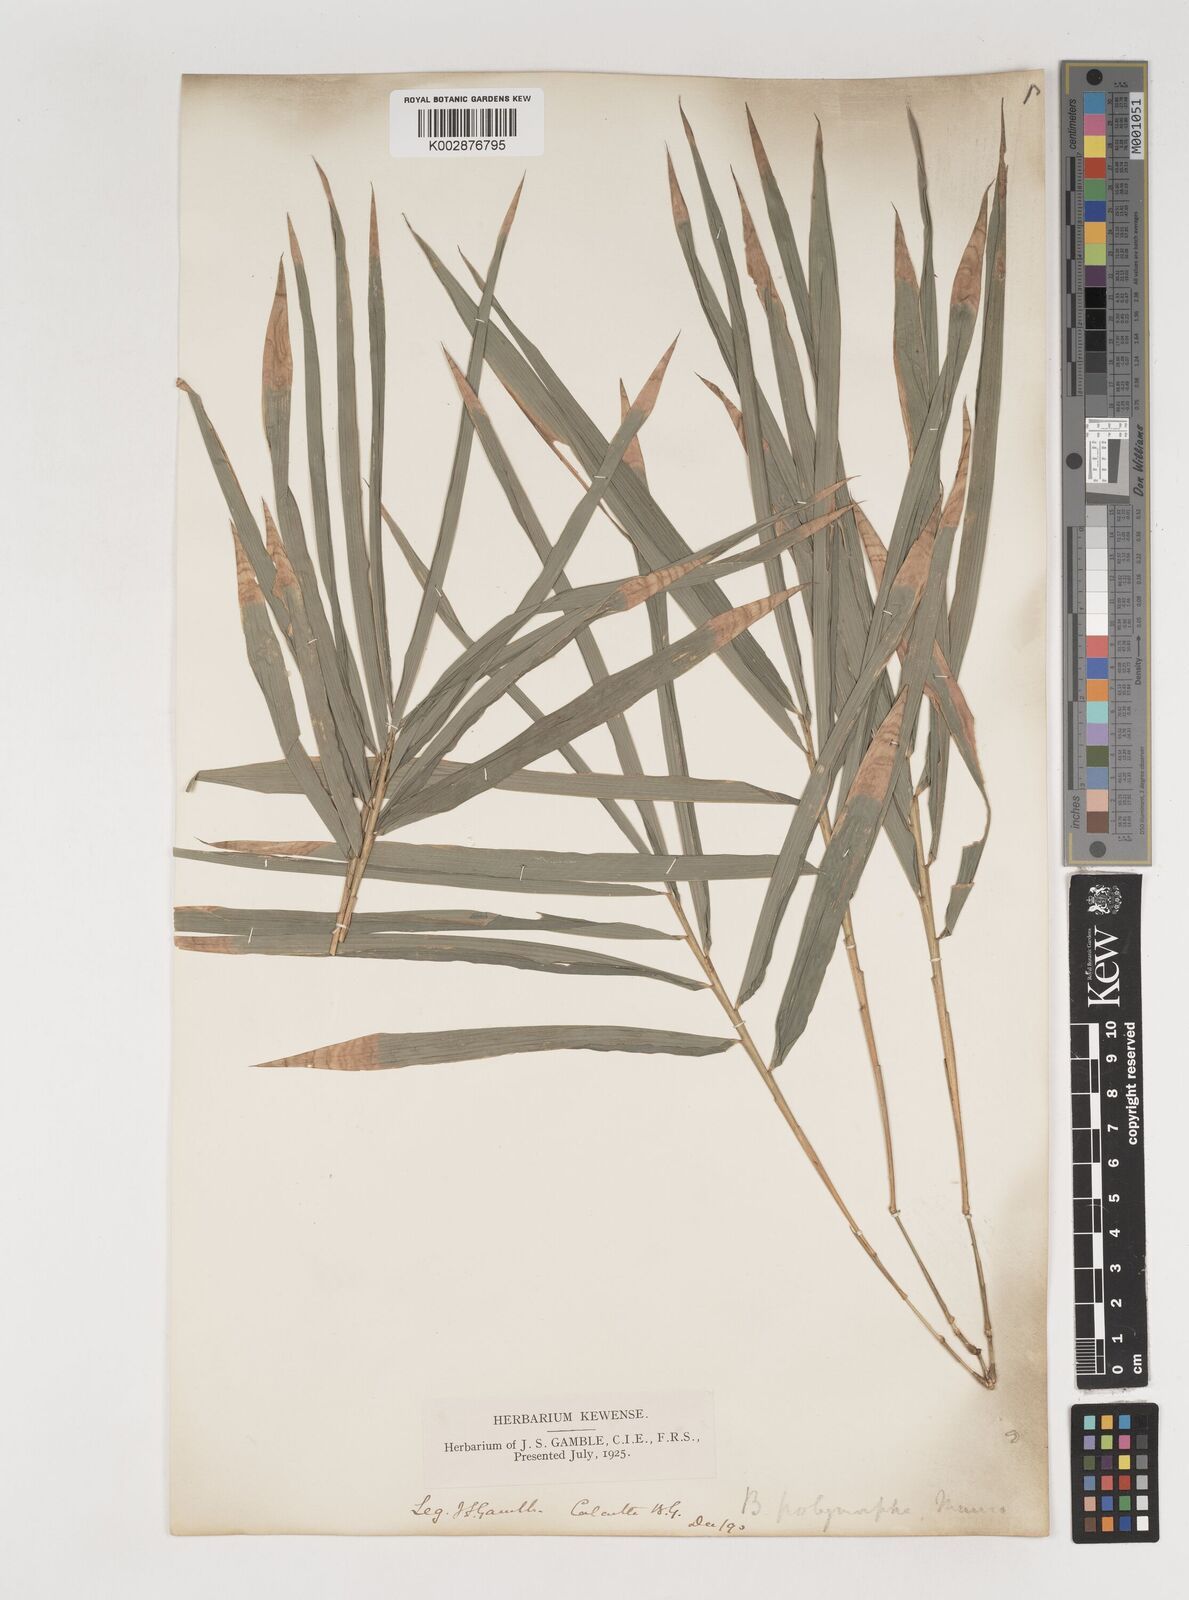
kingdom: Plantae
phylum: Tracheophyta
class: Liliopsida
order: Poales
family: Poaceae
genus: Bambusa
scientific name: Bambusa polymorpha
